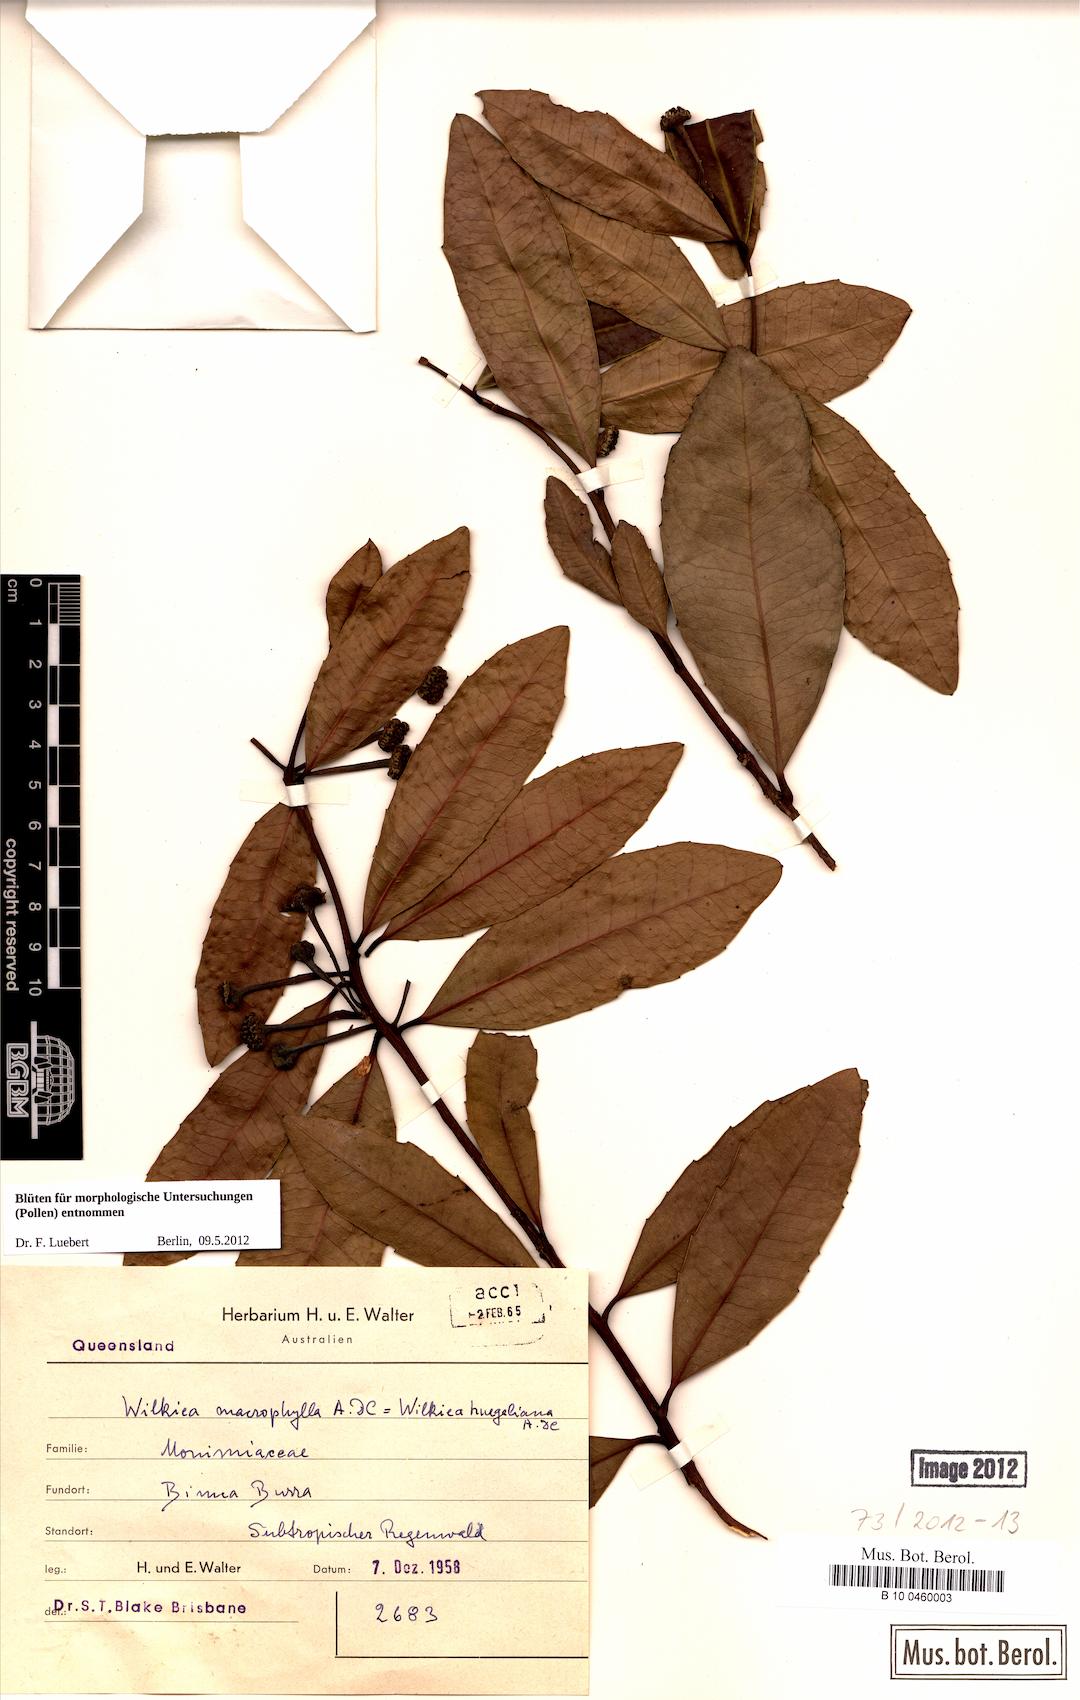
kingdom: Plantae
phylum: Tracheophyta
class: Magnoliopsida
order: Laurales
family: Monimiaceae
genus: Wilkiea
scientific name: Wilkiea macrophylla
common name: Large-leaved wilkiea
